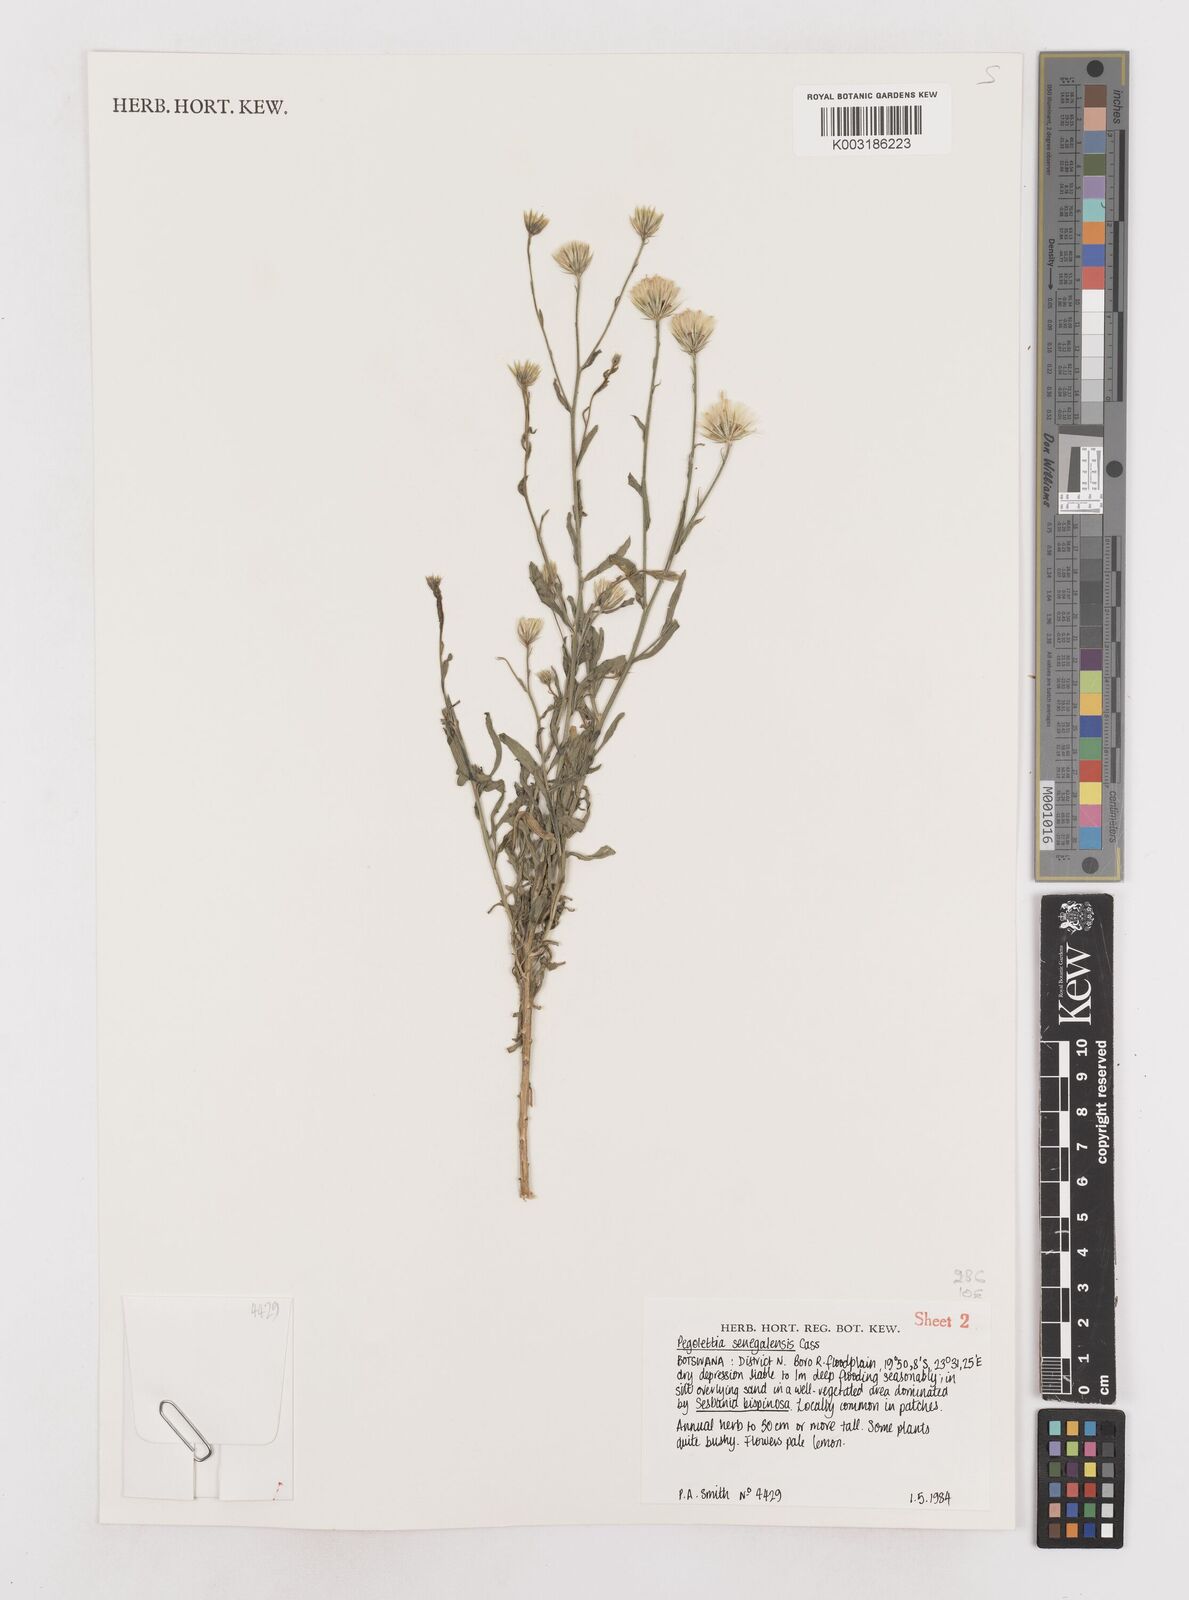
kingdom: Plantae
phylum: Tracheophyta
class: Magnoliopsida
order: Asterales
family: Asteraceae
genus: Pegolettia
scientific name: Pegolettia senegalensis
